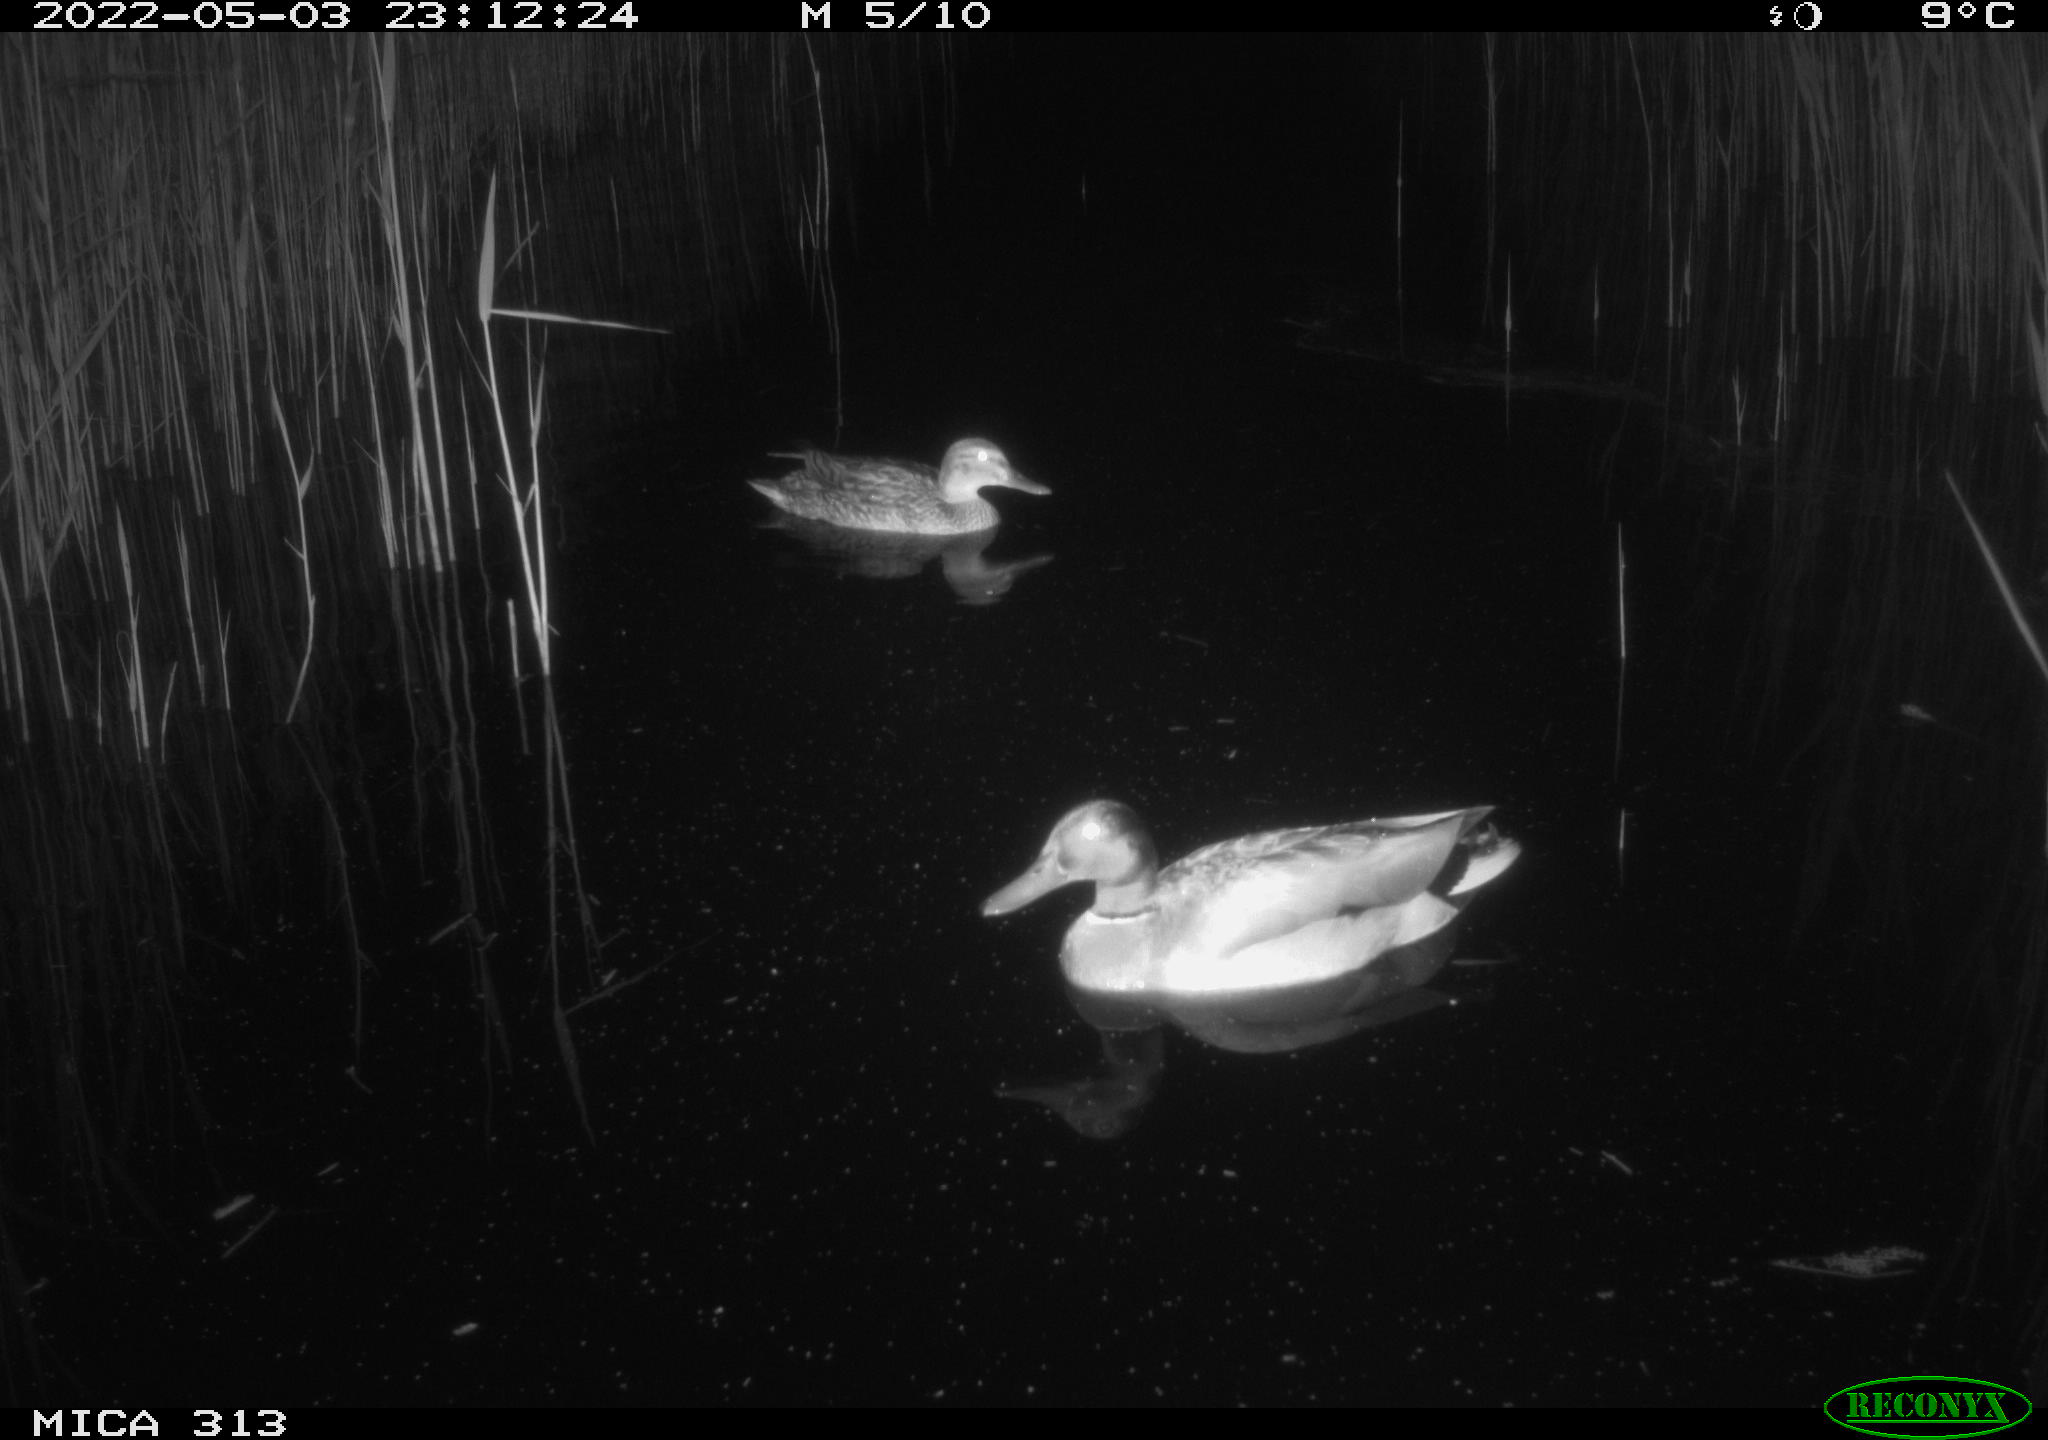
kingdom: Animalia
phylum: Chordata
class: Aves
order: Anseriformes
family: Anatidae
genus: Anas
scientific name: Anas platyrhynchos
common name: Mallard
